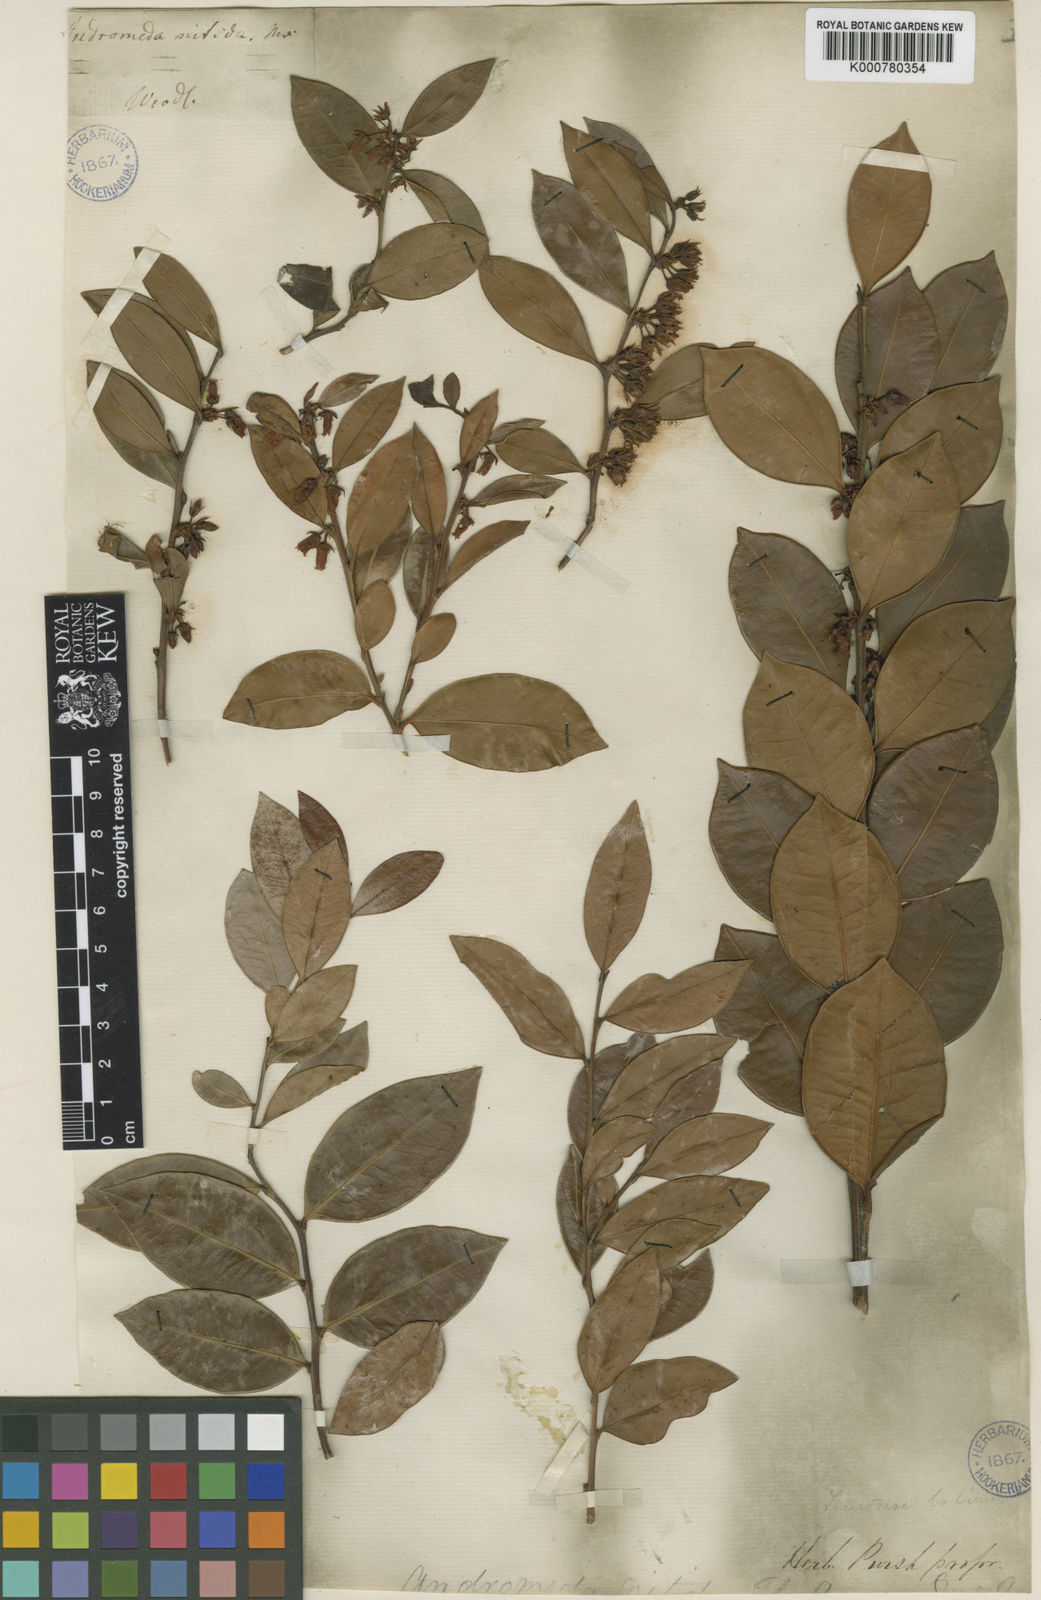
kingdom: Plantae
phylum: Tracheophyta
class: Magnoliopsida
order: Ericales
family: Ericaceae
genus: Lyonia
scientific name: Lyonia lucida
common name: Fetterbush
